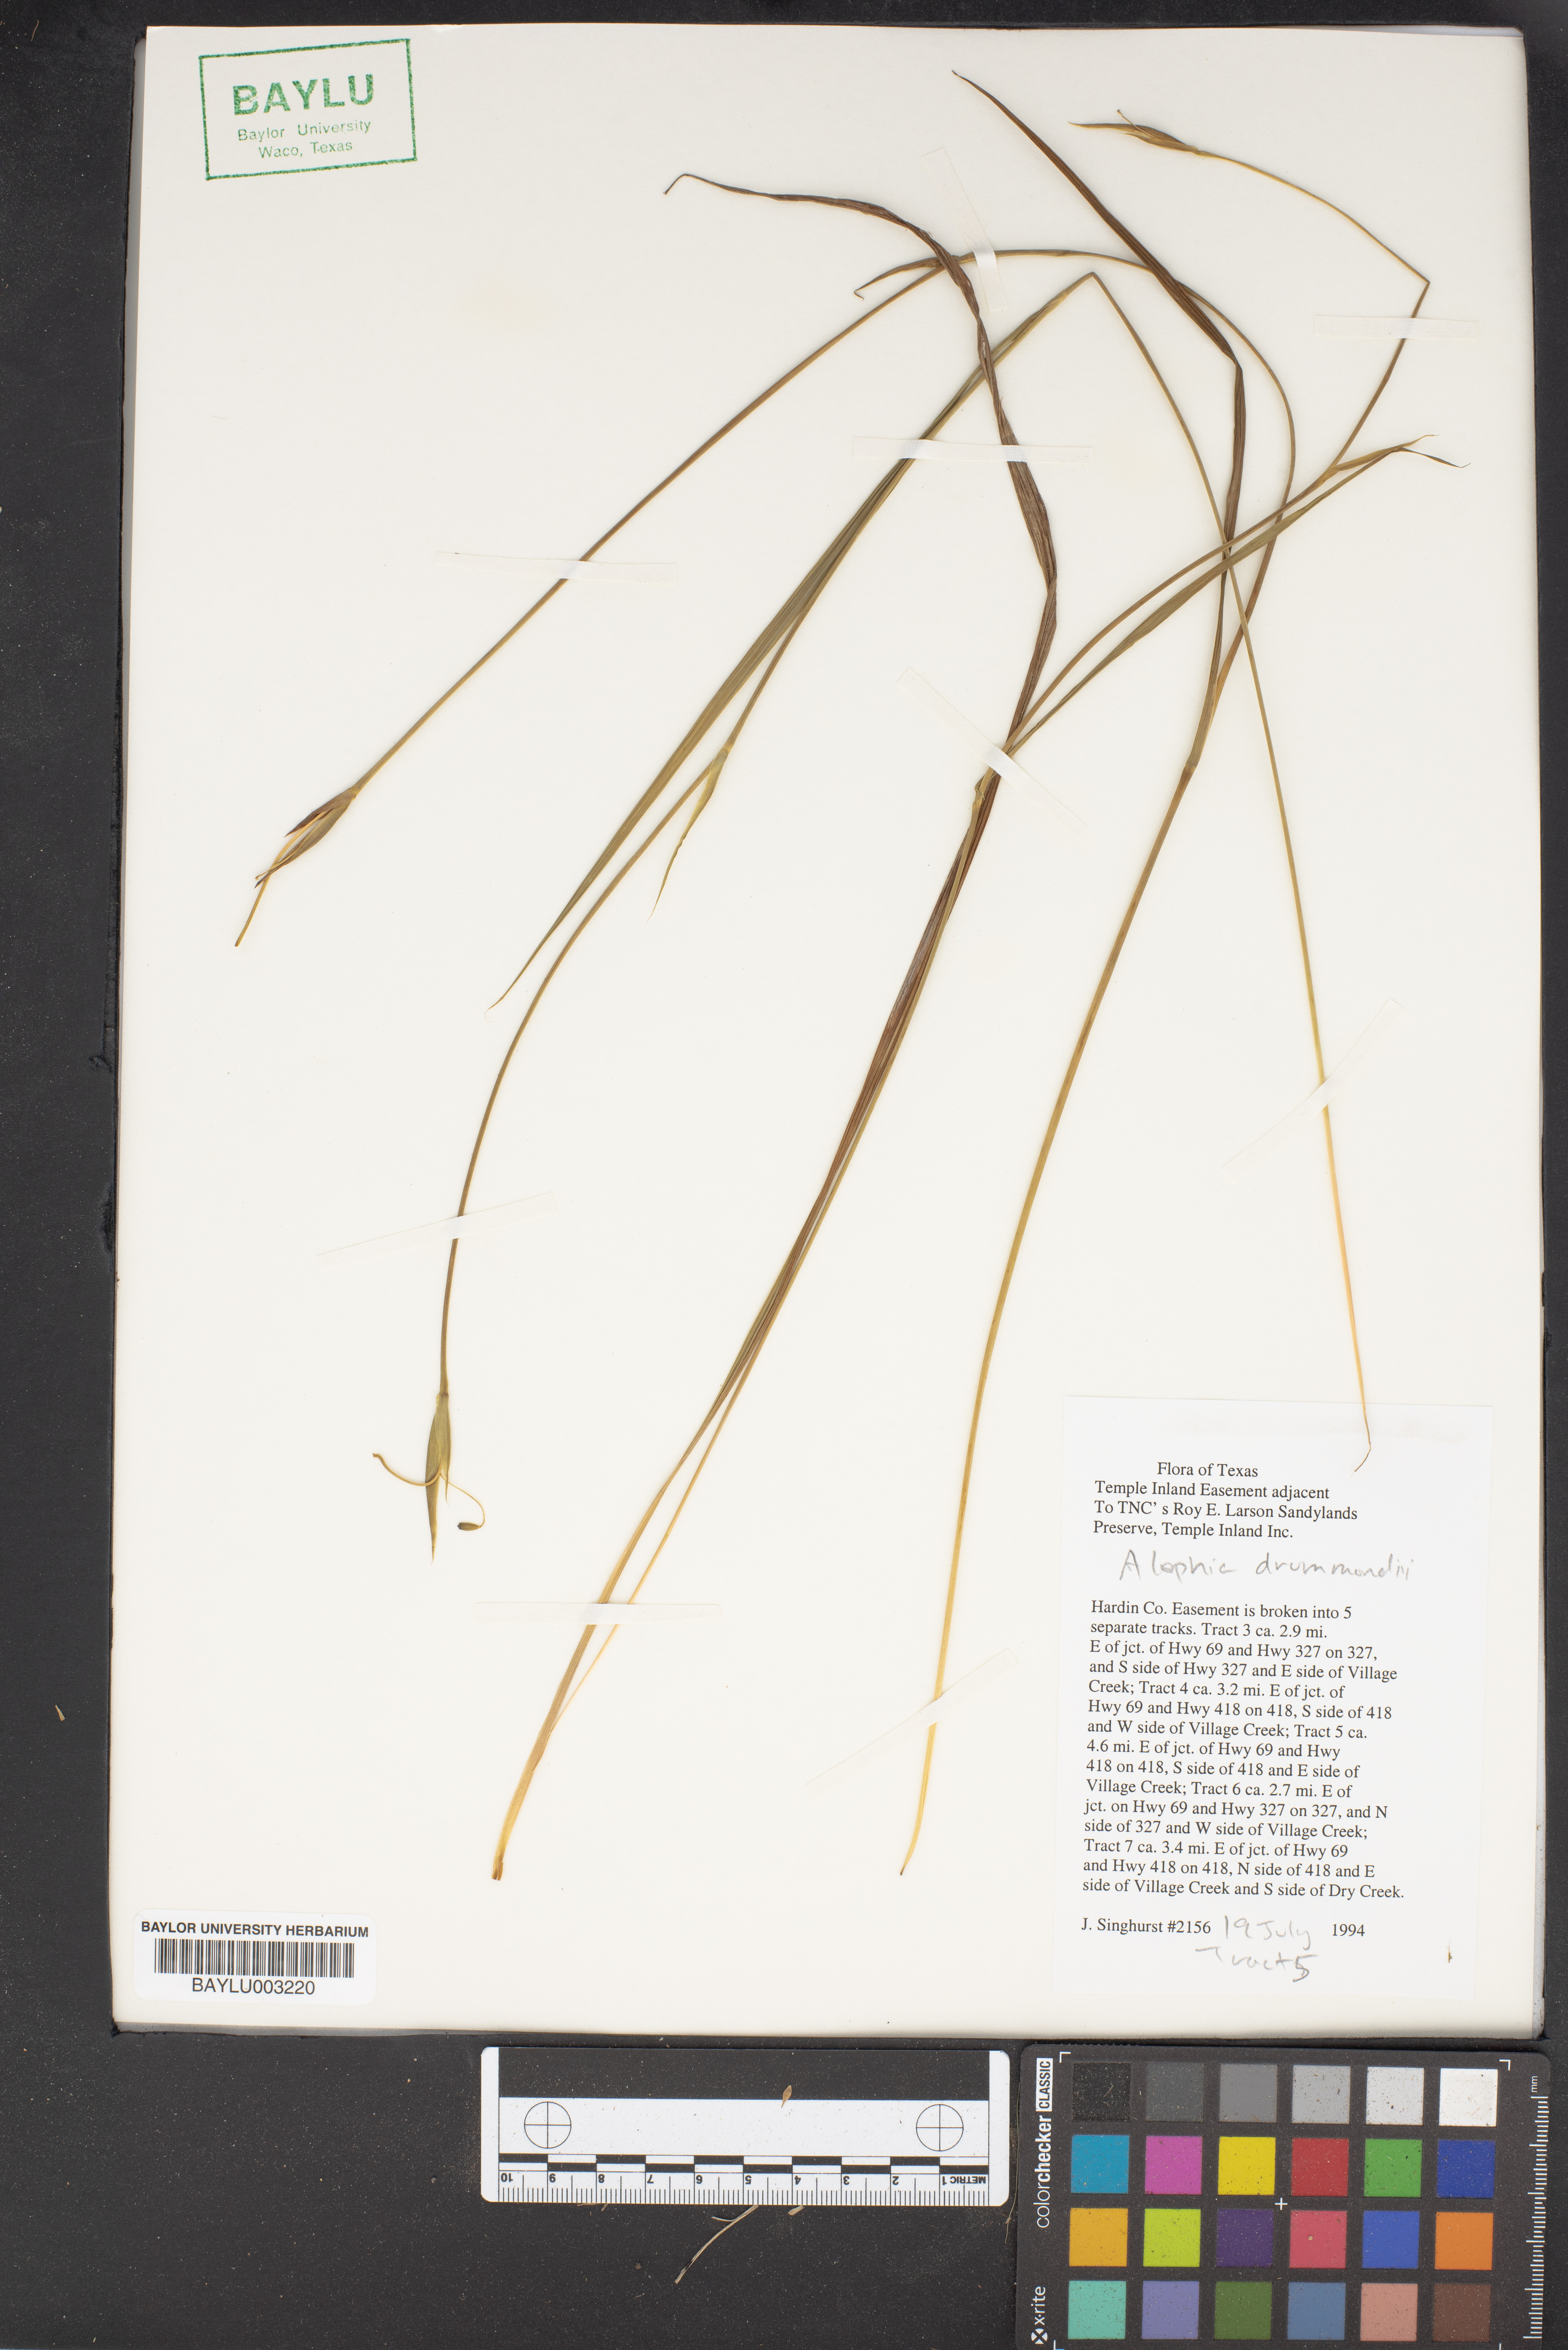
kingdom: Plantae
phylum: Tracheophyta
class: Liliopsida
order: Asparagales
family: Iridaceae
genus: Alophia
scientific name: Alophia drummondii
